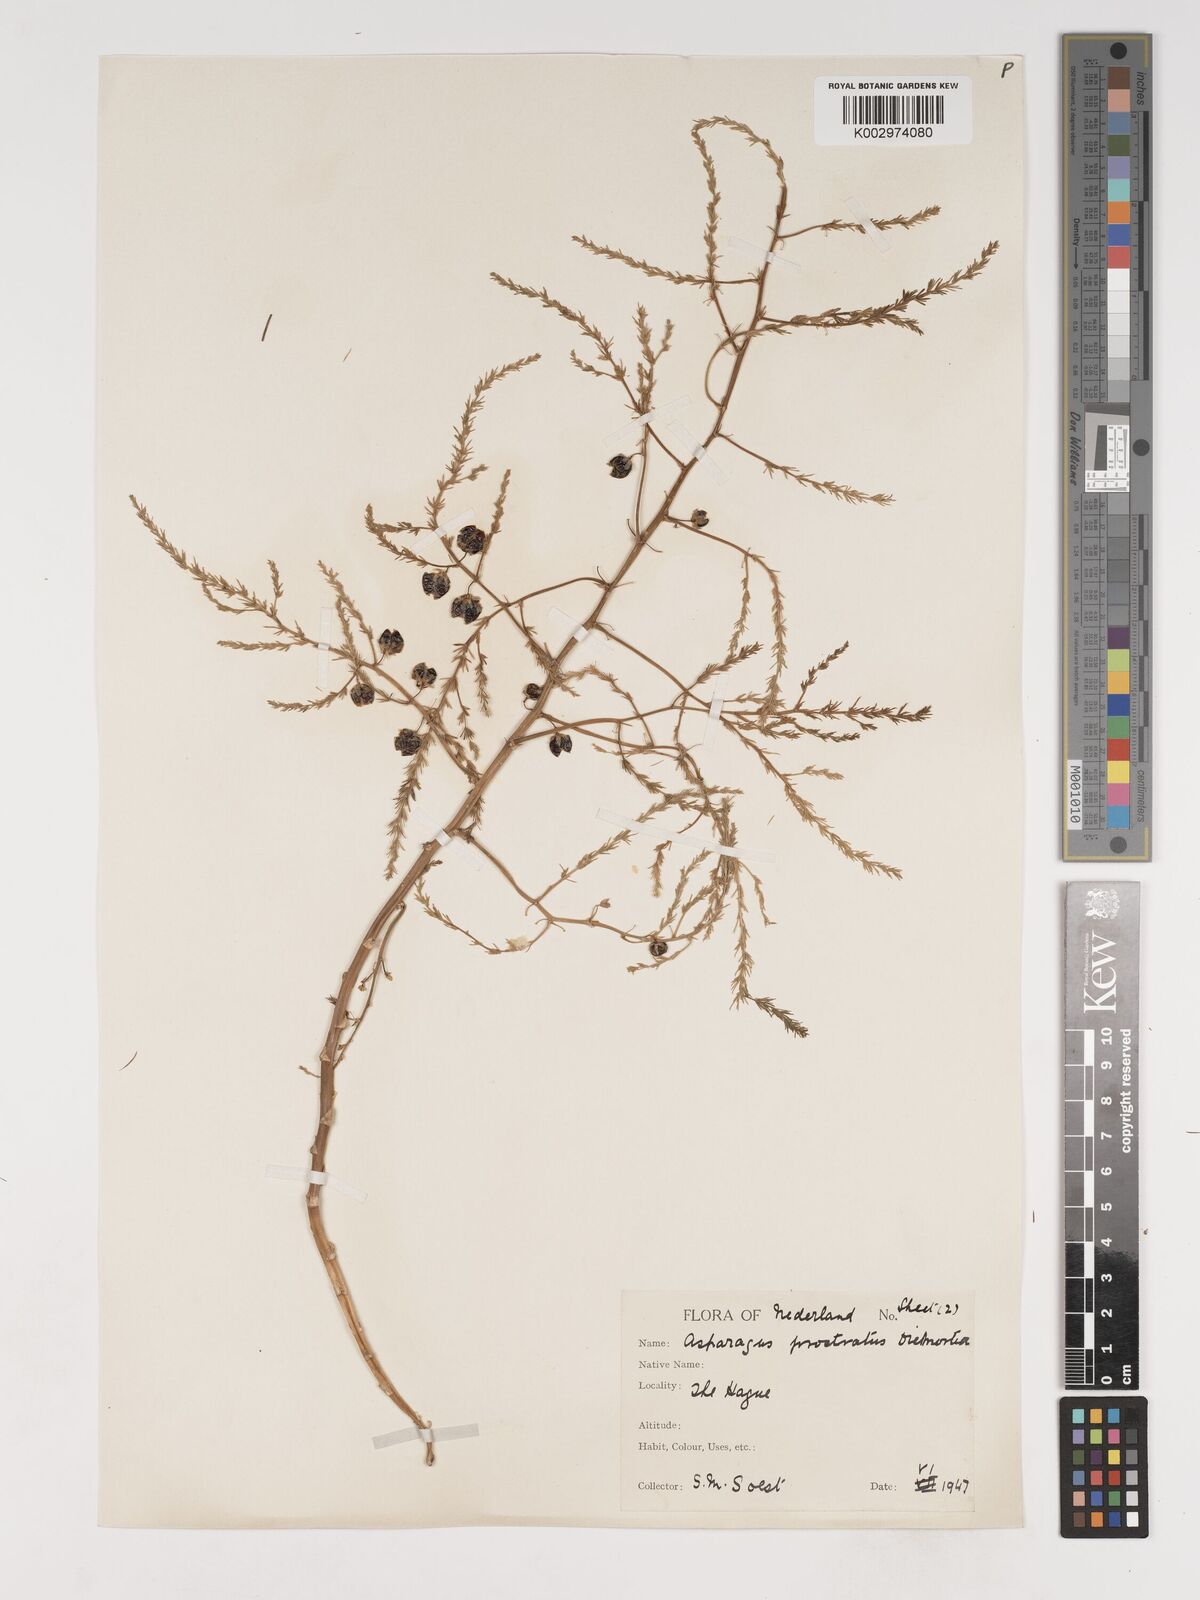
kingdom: Plantae
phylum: Tracheophyta
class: Liliopsida
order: Asparagales
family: Asparagaceae
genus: Asparagus
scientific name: Asparagus prostratus
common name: Wild asparagus
